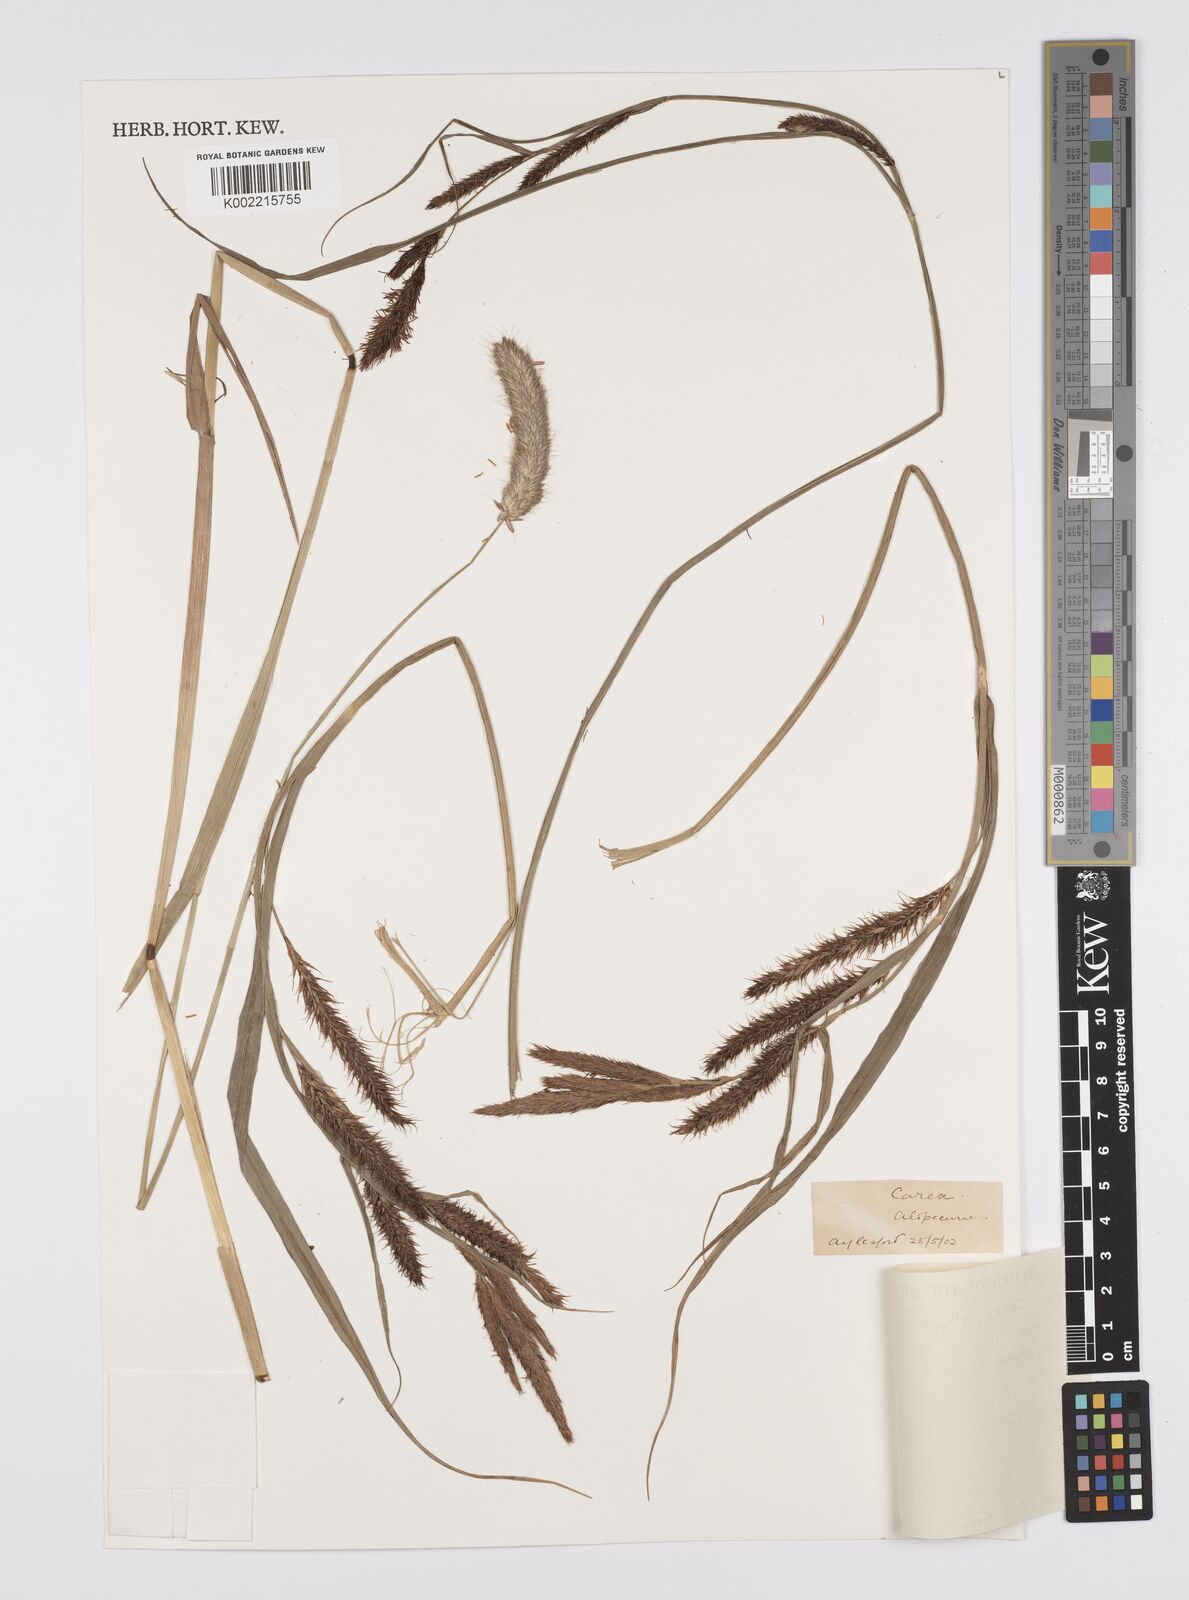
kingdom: Plantae
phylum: Tracheophyta
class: Liliopsida
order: Poales
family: Cyperaceae
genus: Carex
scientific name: Carex
